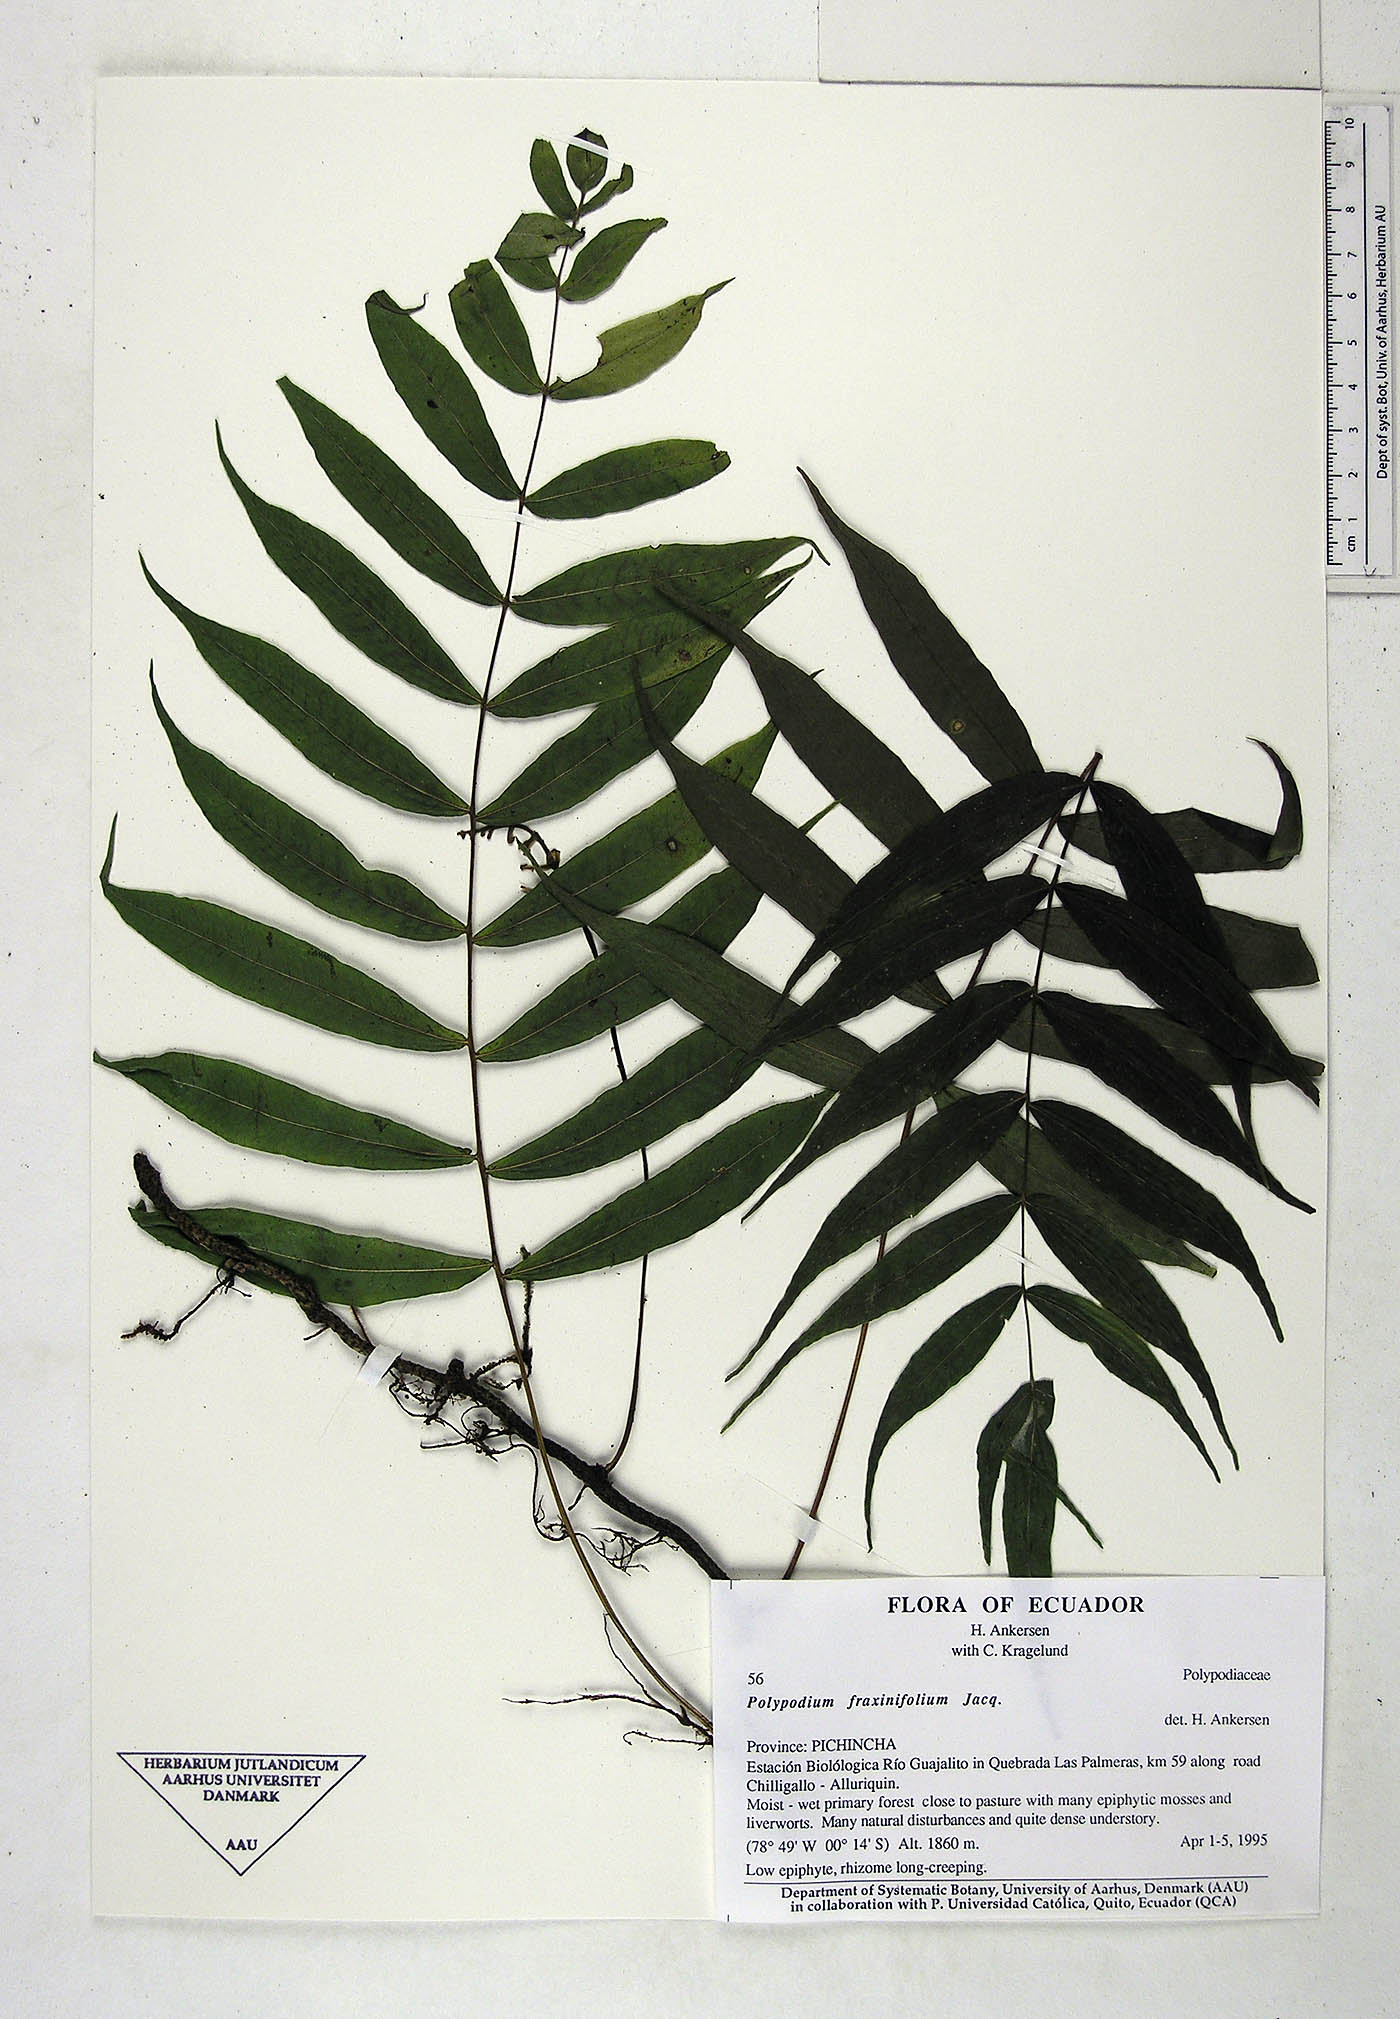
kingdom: Plantae
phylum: Tracheophyta
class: Polypodiopsida
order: Polypodiales
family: Polypodiaceae
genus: Serpocaulon
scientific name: Serpocaulon fraxinifolium
